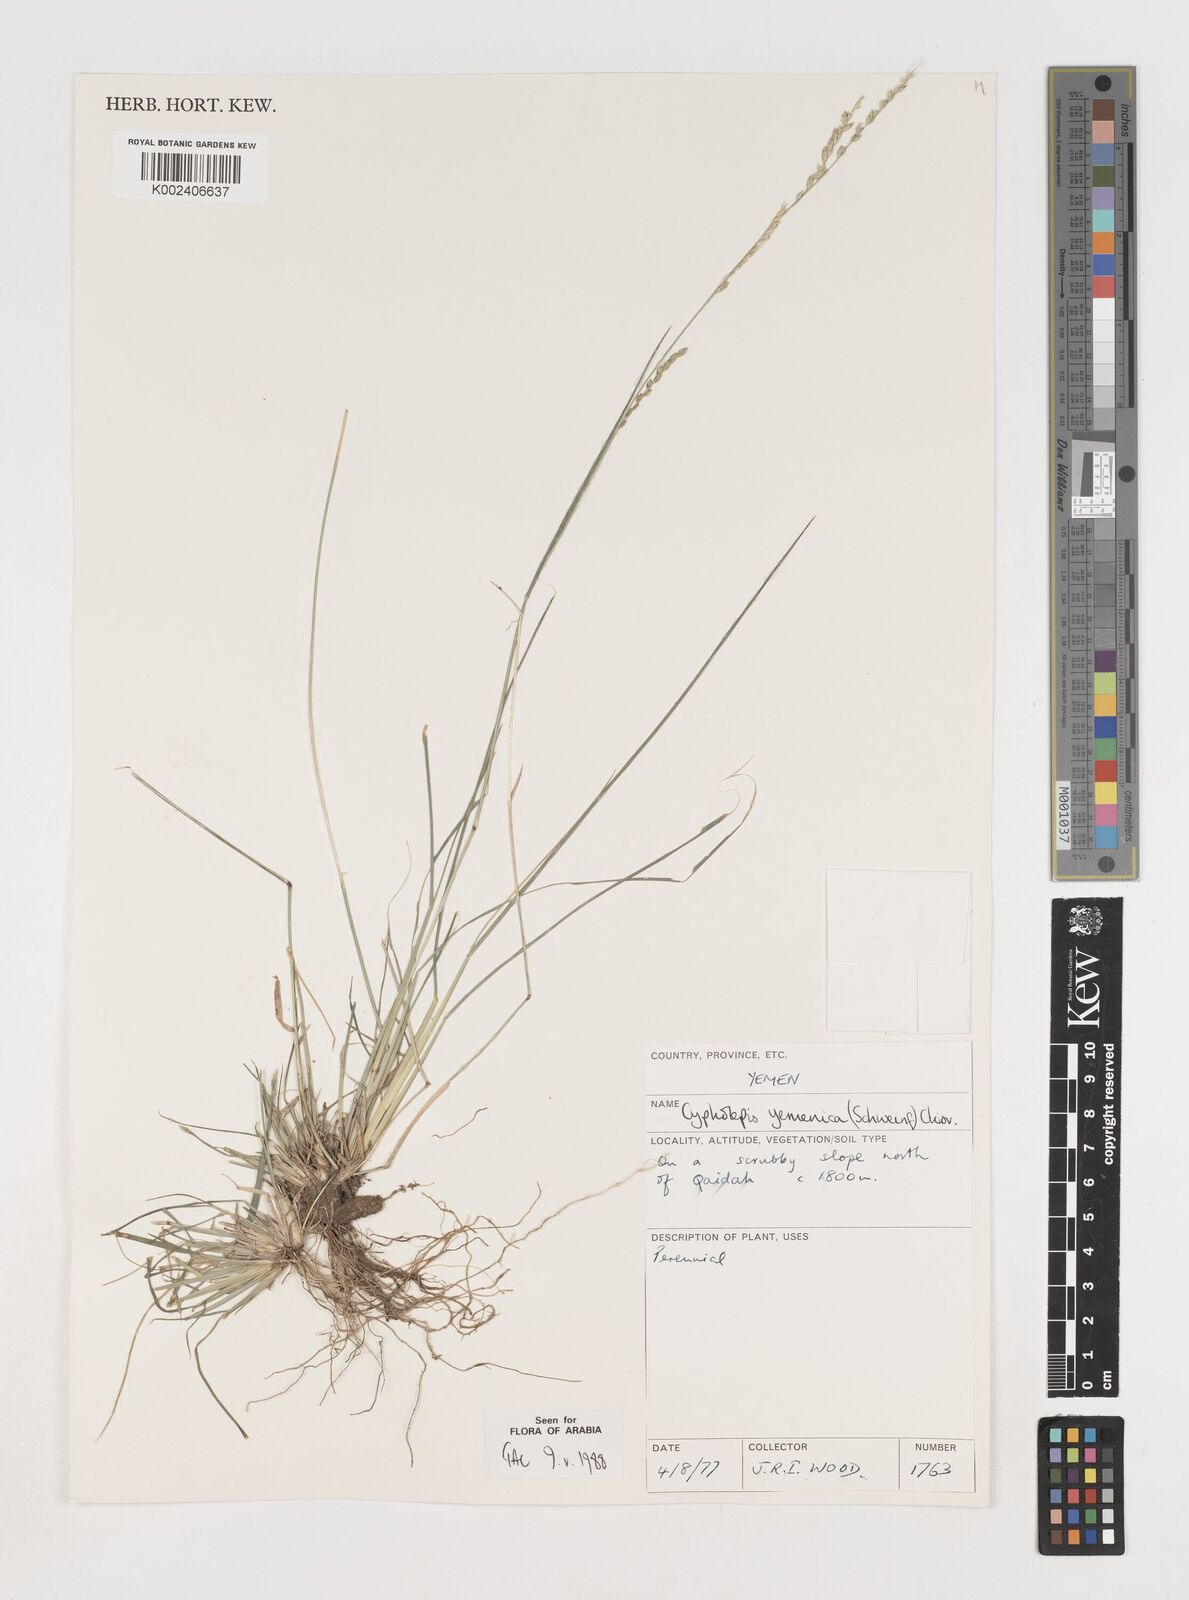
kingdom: Plantae
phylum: Tracheophyta
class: Liliopsida
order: Poales
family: Poaceae
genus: Disakisperma
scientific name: Disakisperma yemenicum
